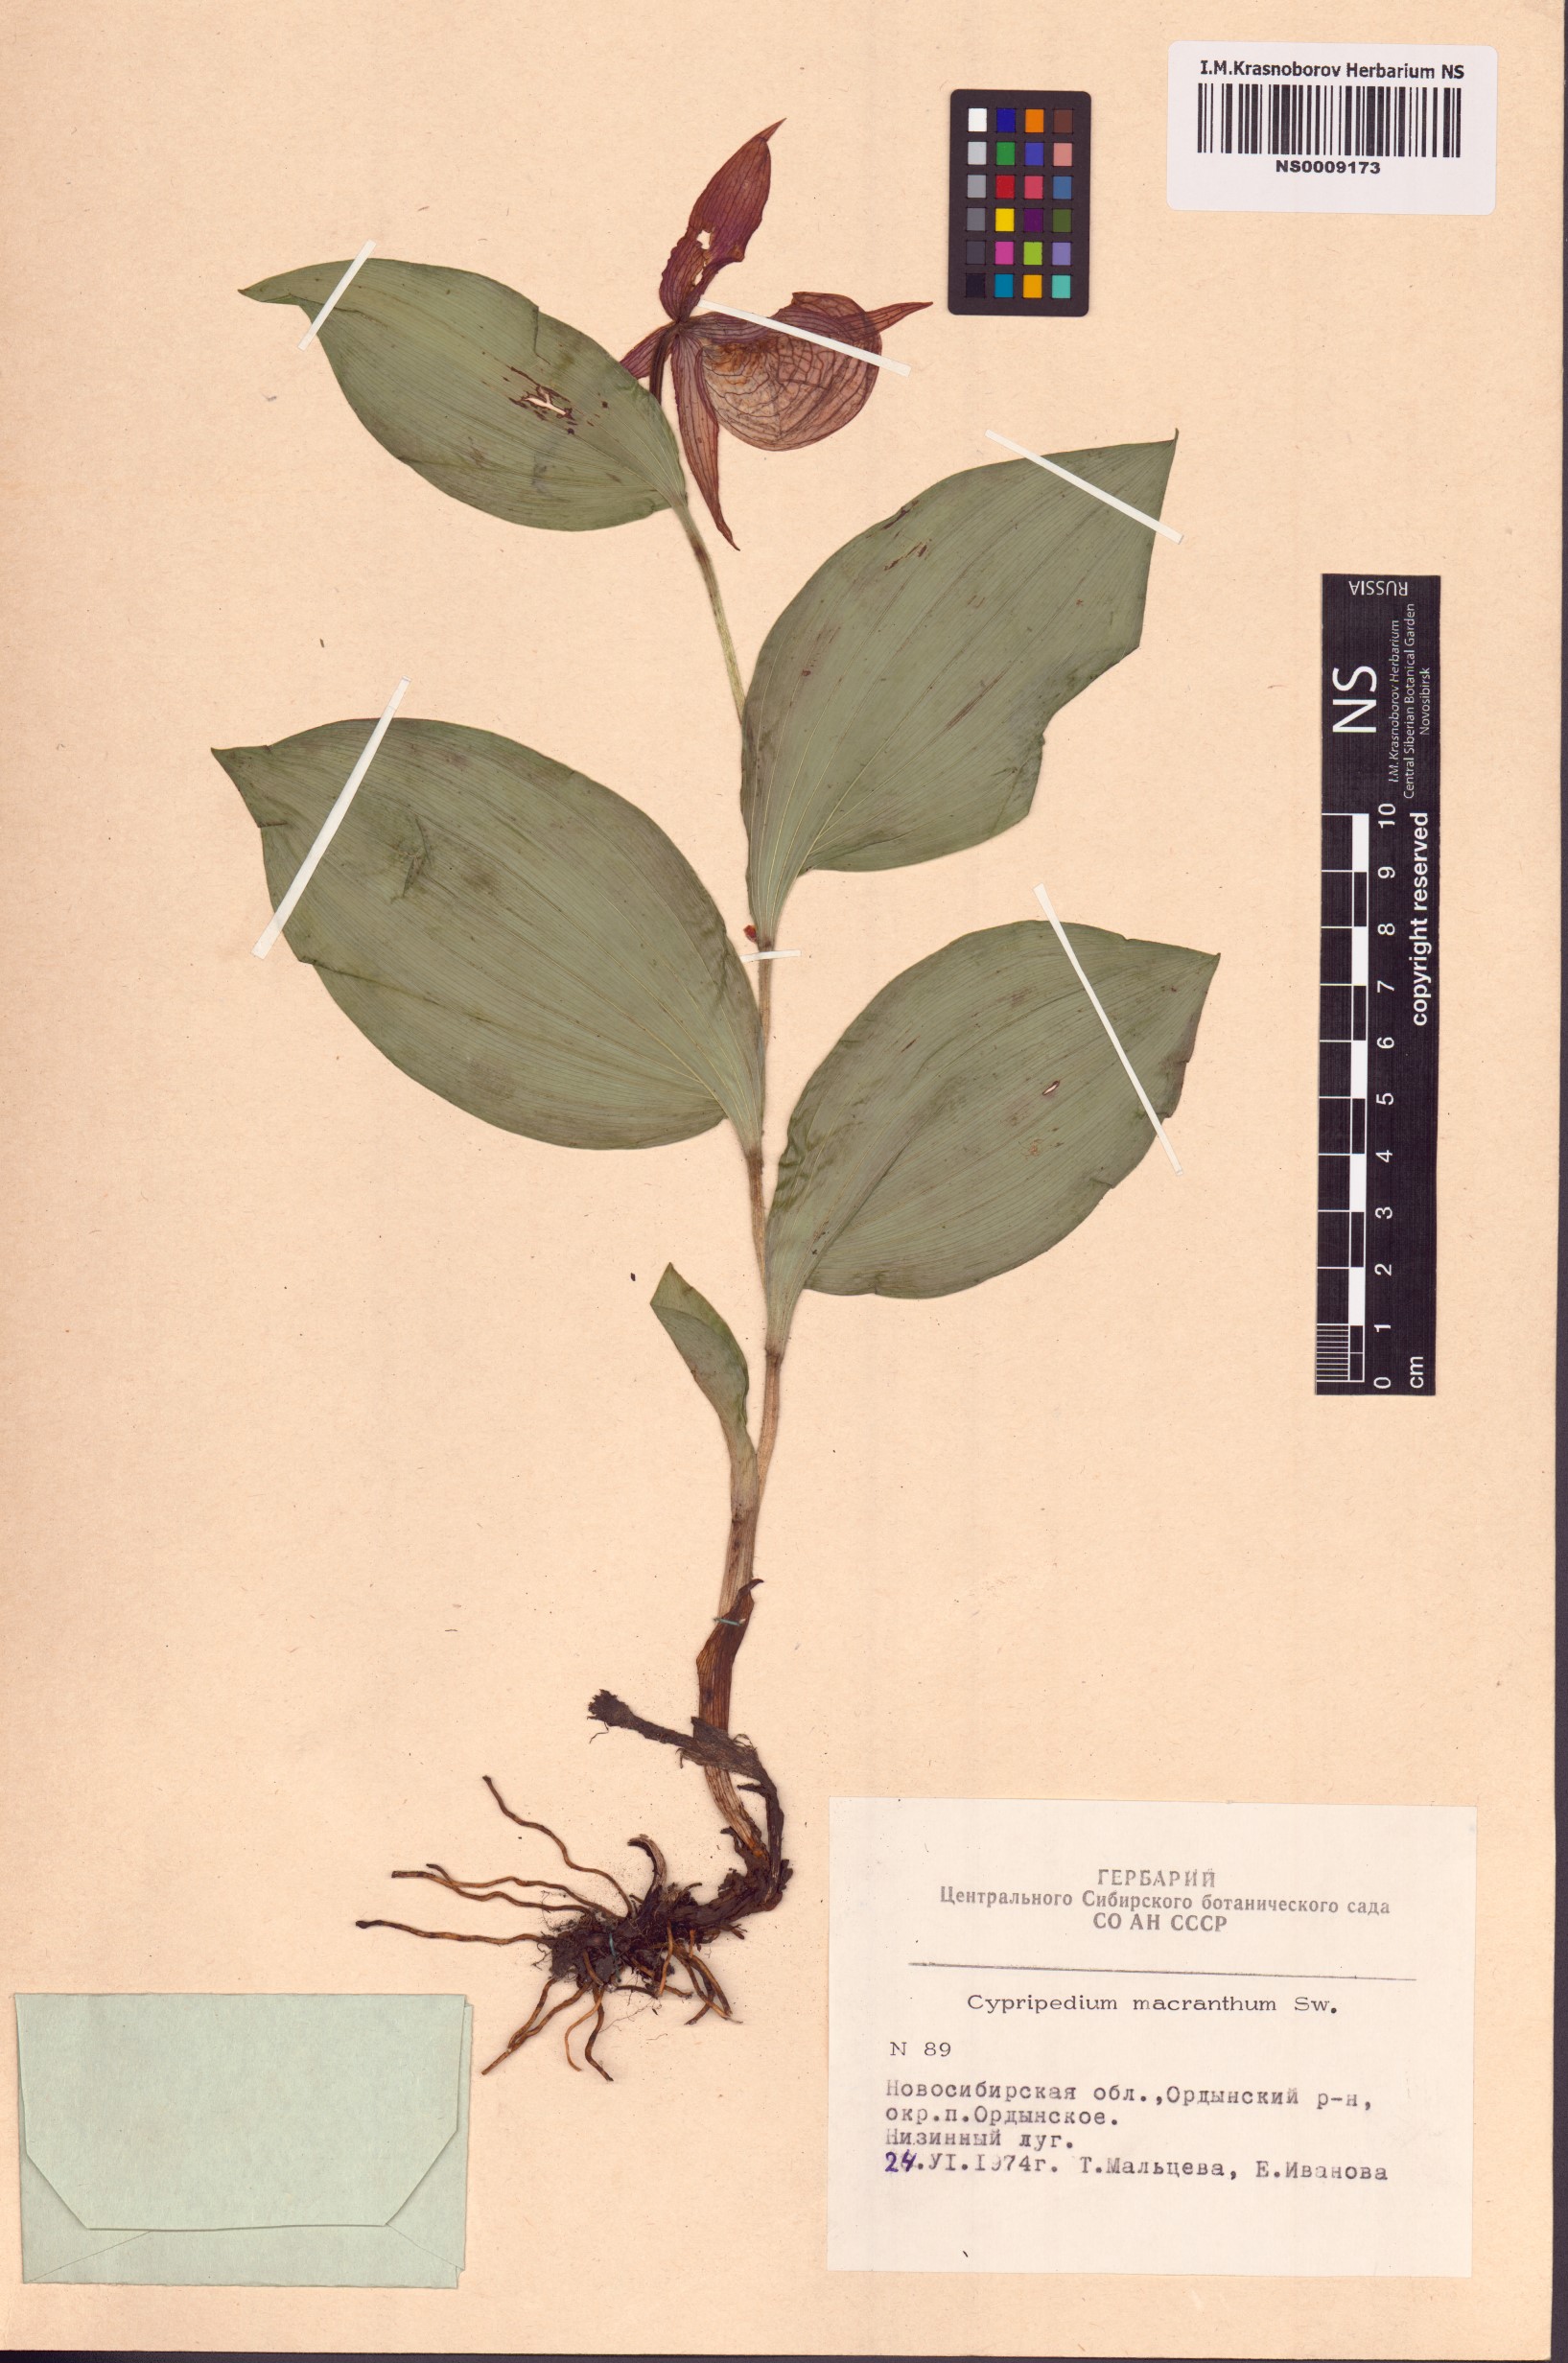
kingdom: Plantae
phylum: Tracheophyta
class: Liliopsida
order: Asparagales
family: Orchidaceae
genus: Cypripedium
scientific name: Cypripedium macranthos
